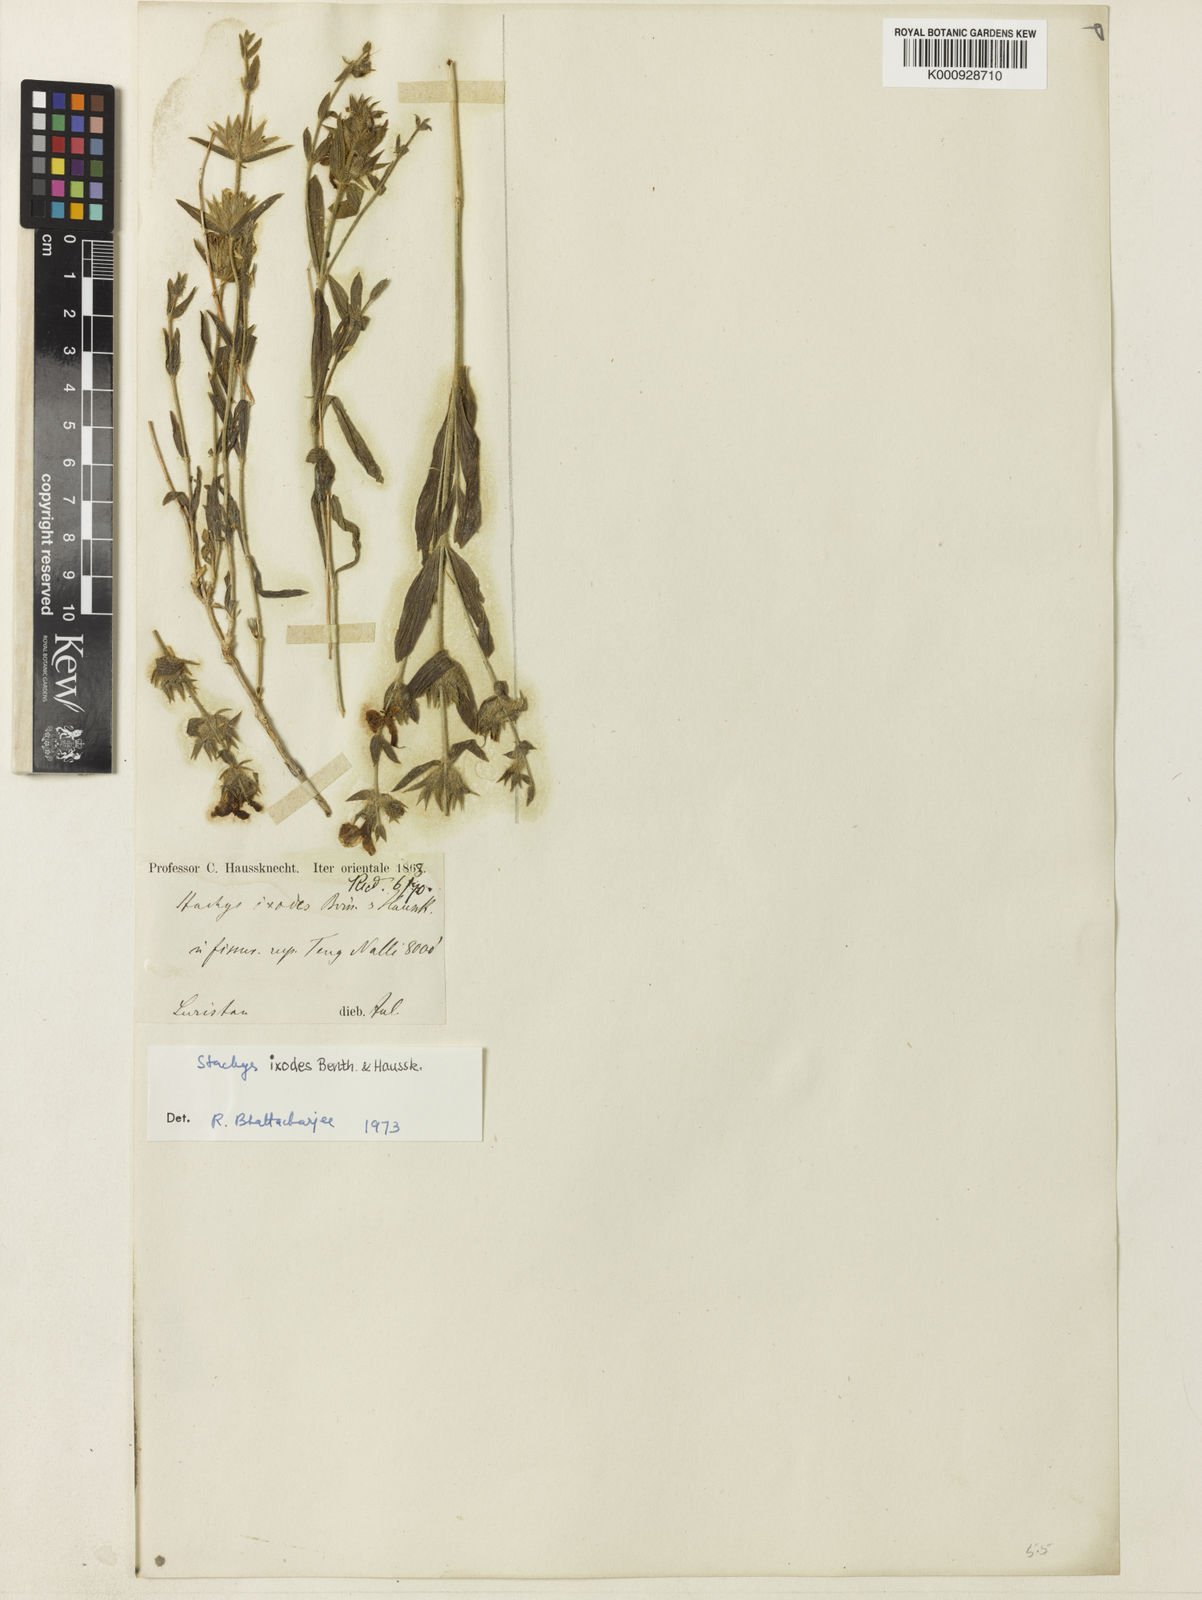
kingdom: Plantae
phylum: Tracheophyta
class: Magnoliopsida
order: Lamiales
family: Lamiaceae
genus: Stachys
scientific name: Stachys pilifera
